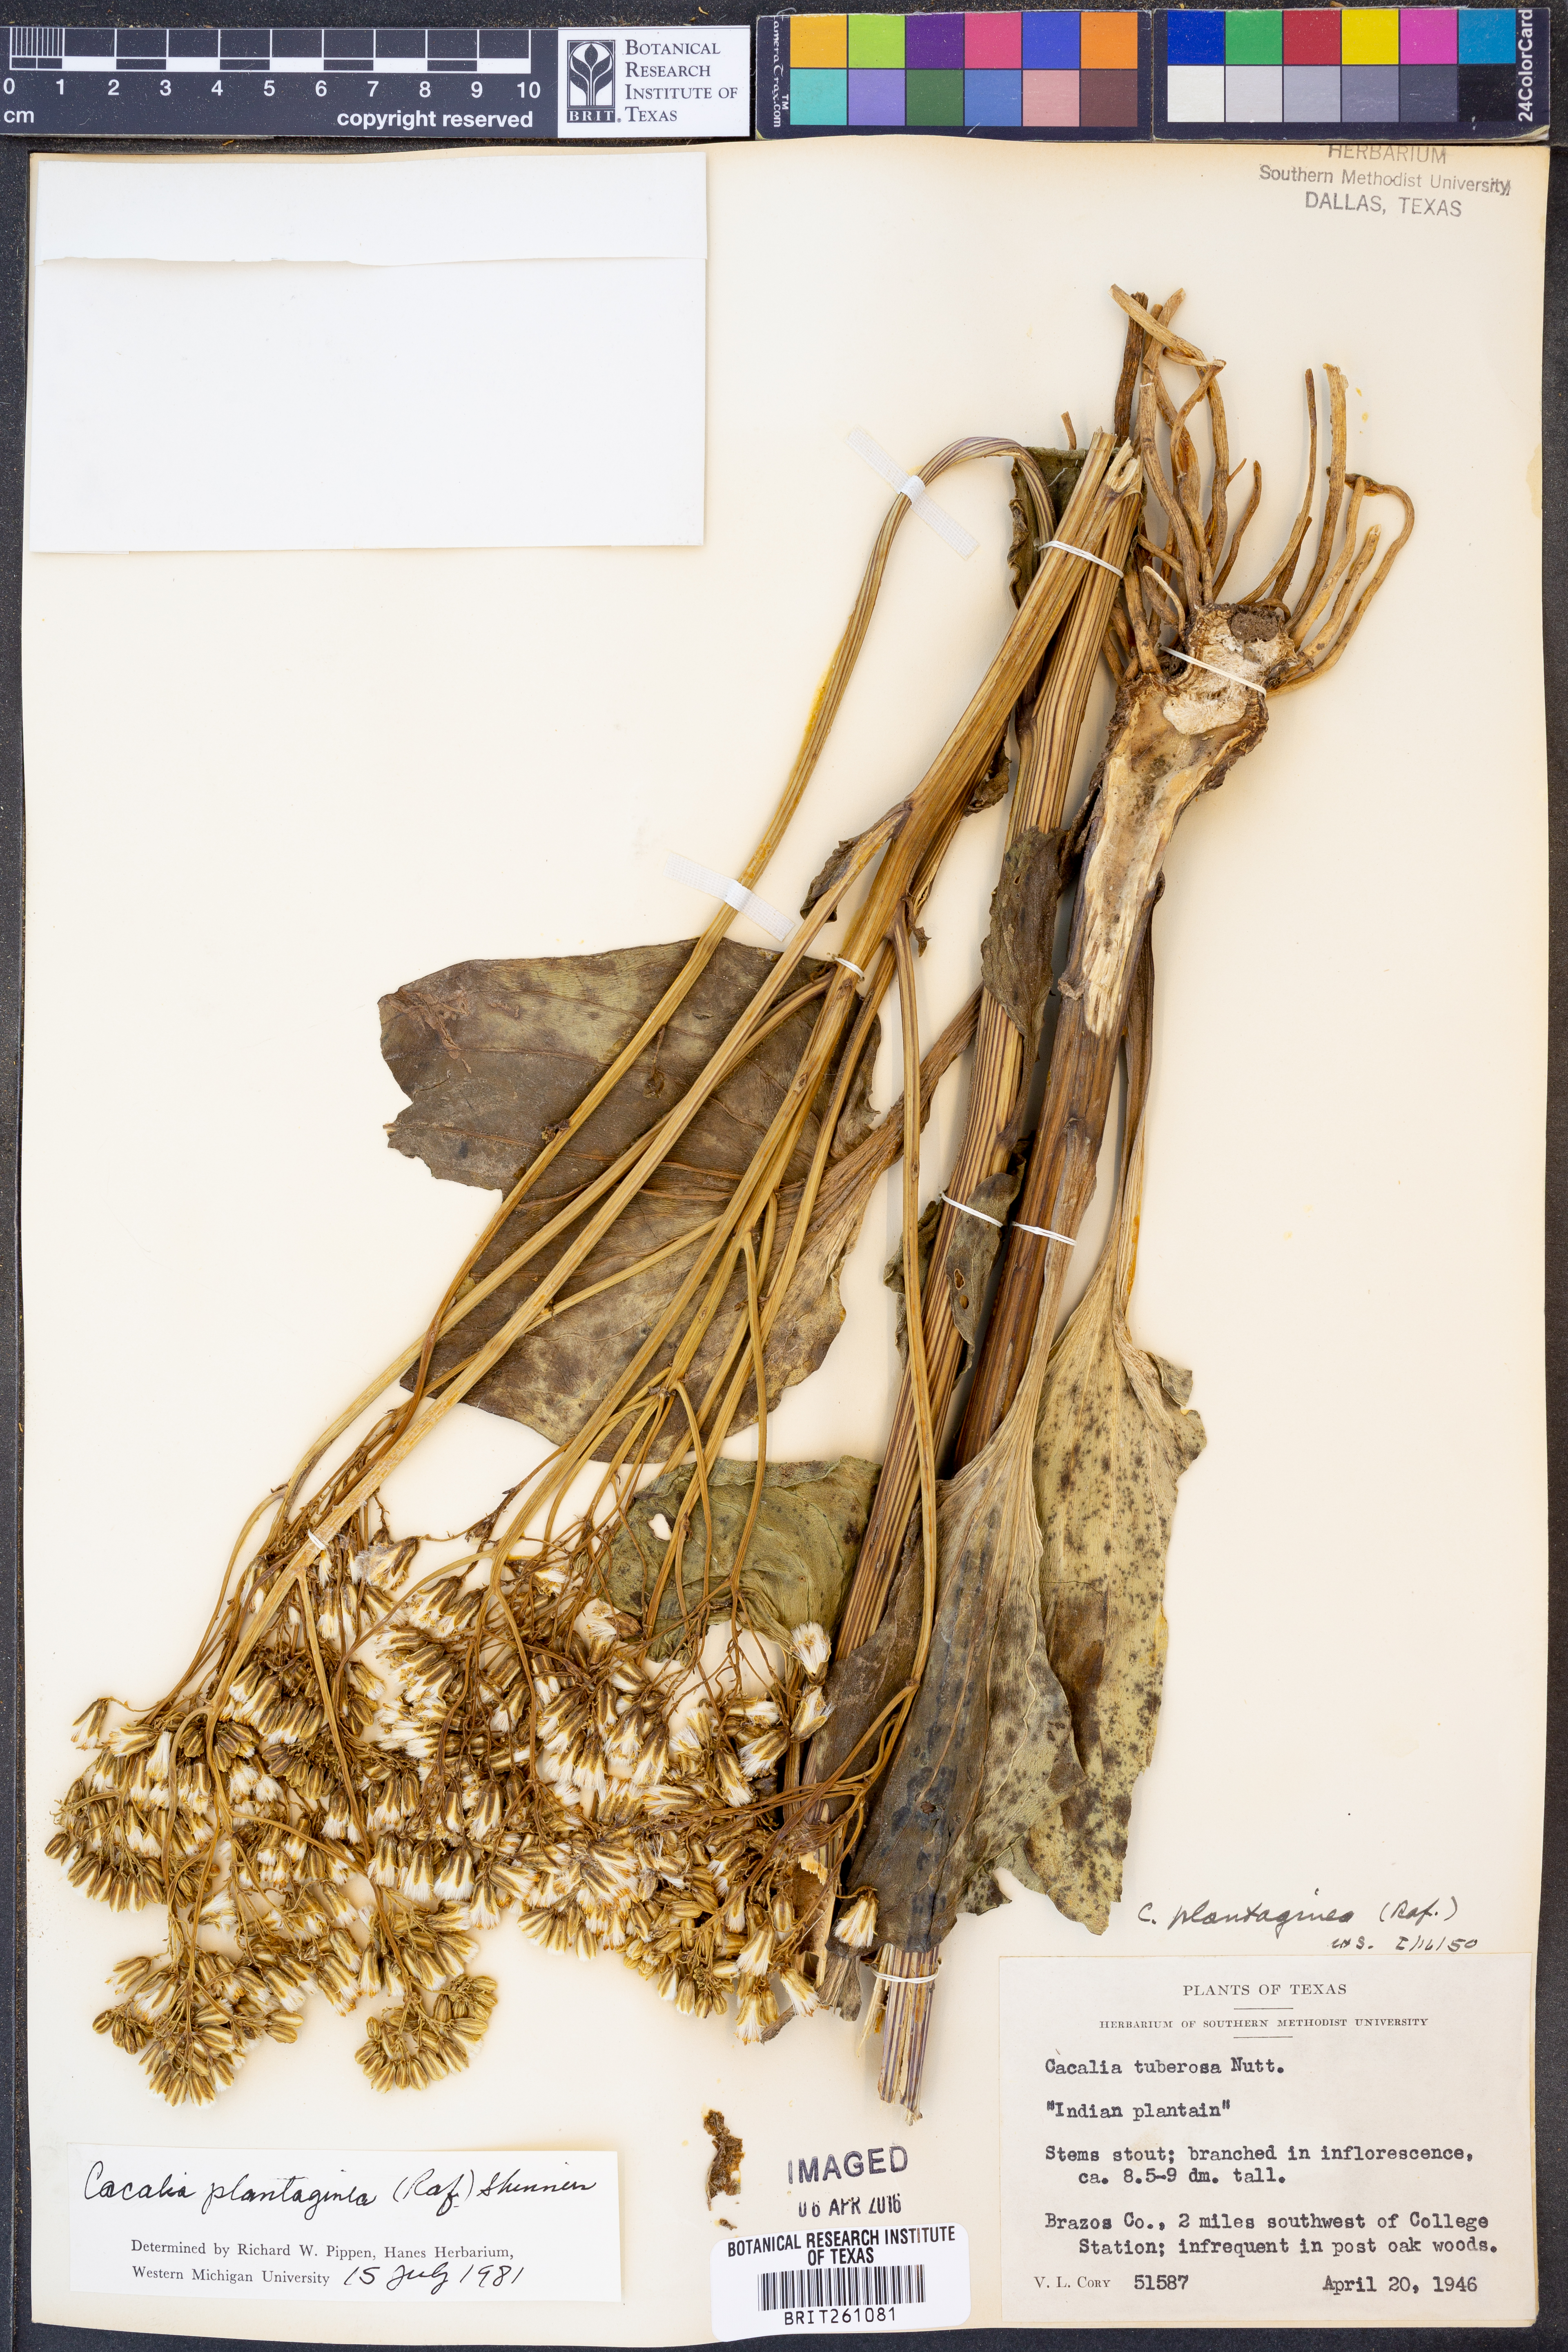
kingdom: Plantae
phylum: Tracheophyta
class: Magnoliopsida
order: Asterales
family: Asteraceae
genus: Arnoglossum
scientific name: Arnoglossum plantagineum
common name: Groove-stemmed indian-plantain
